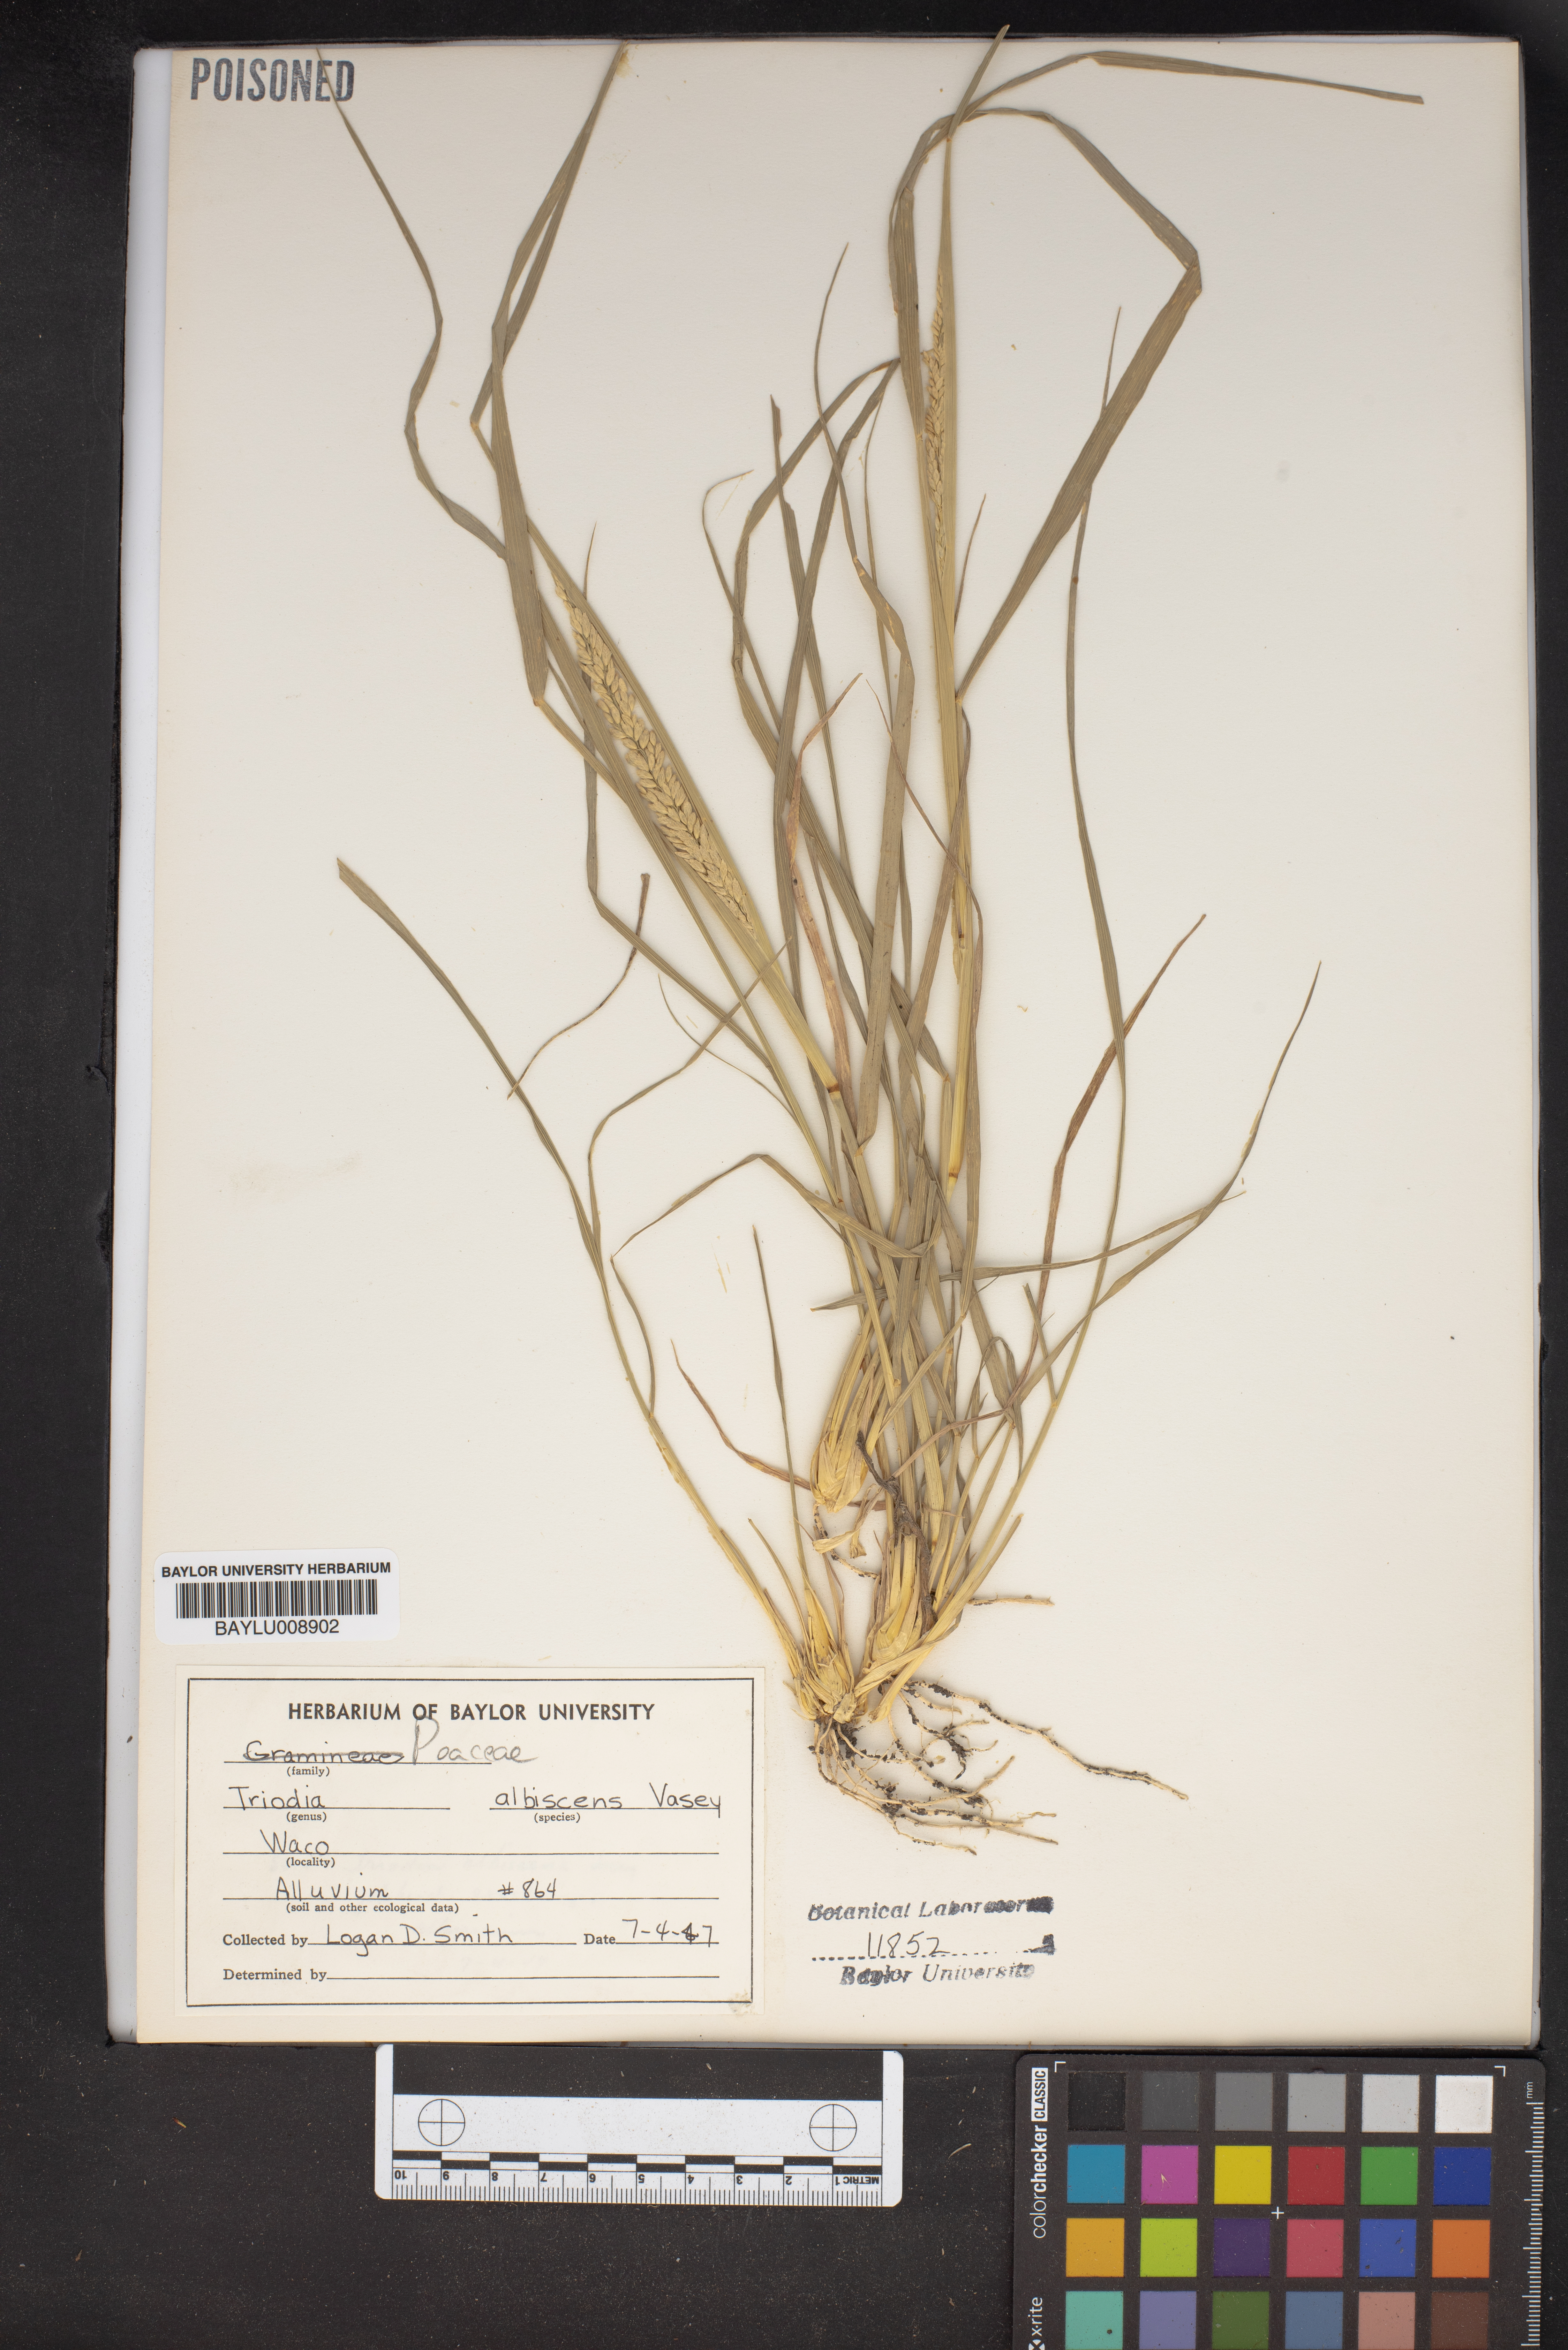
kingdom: Plantae
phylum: Tracheophyta
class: Liliopsida
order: Poales
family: Poaceae
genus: Tridens
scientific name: Tridens albescens
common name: White tridens
